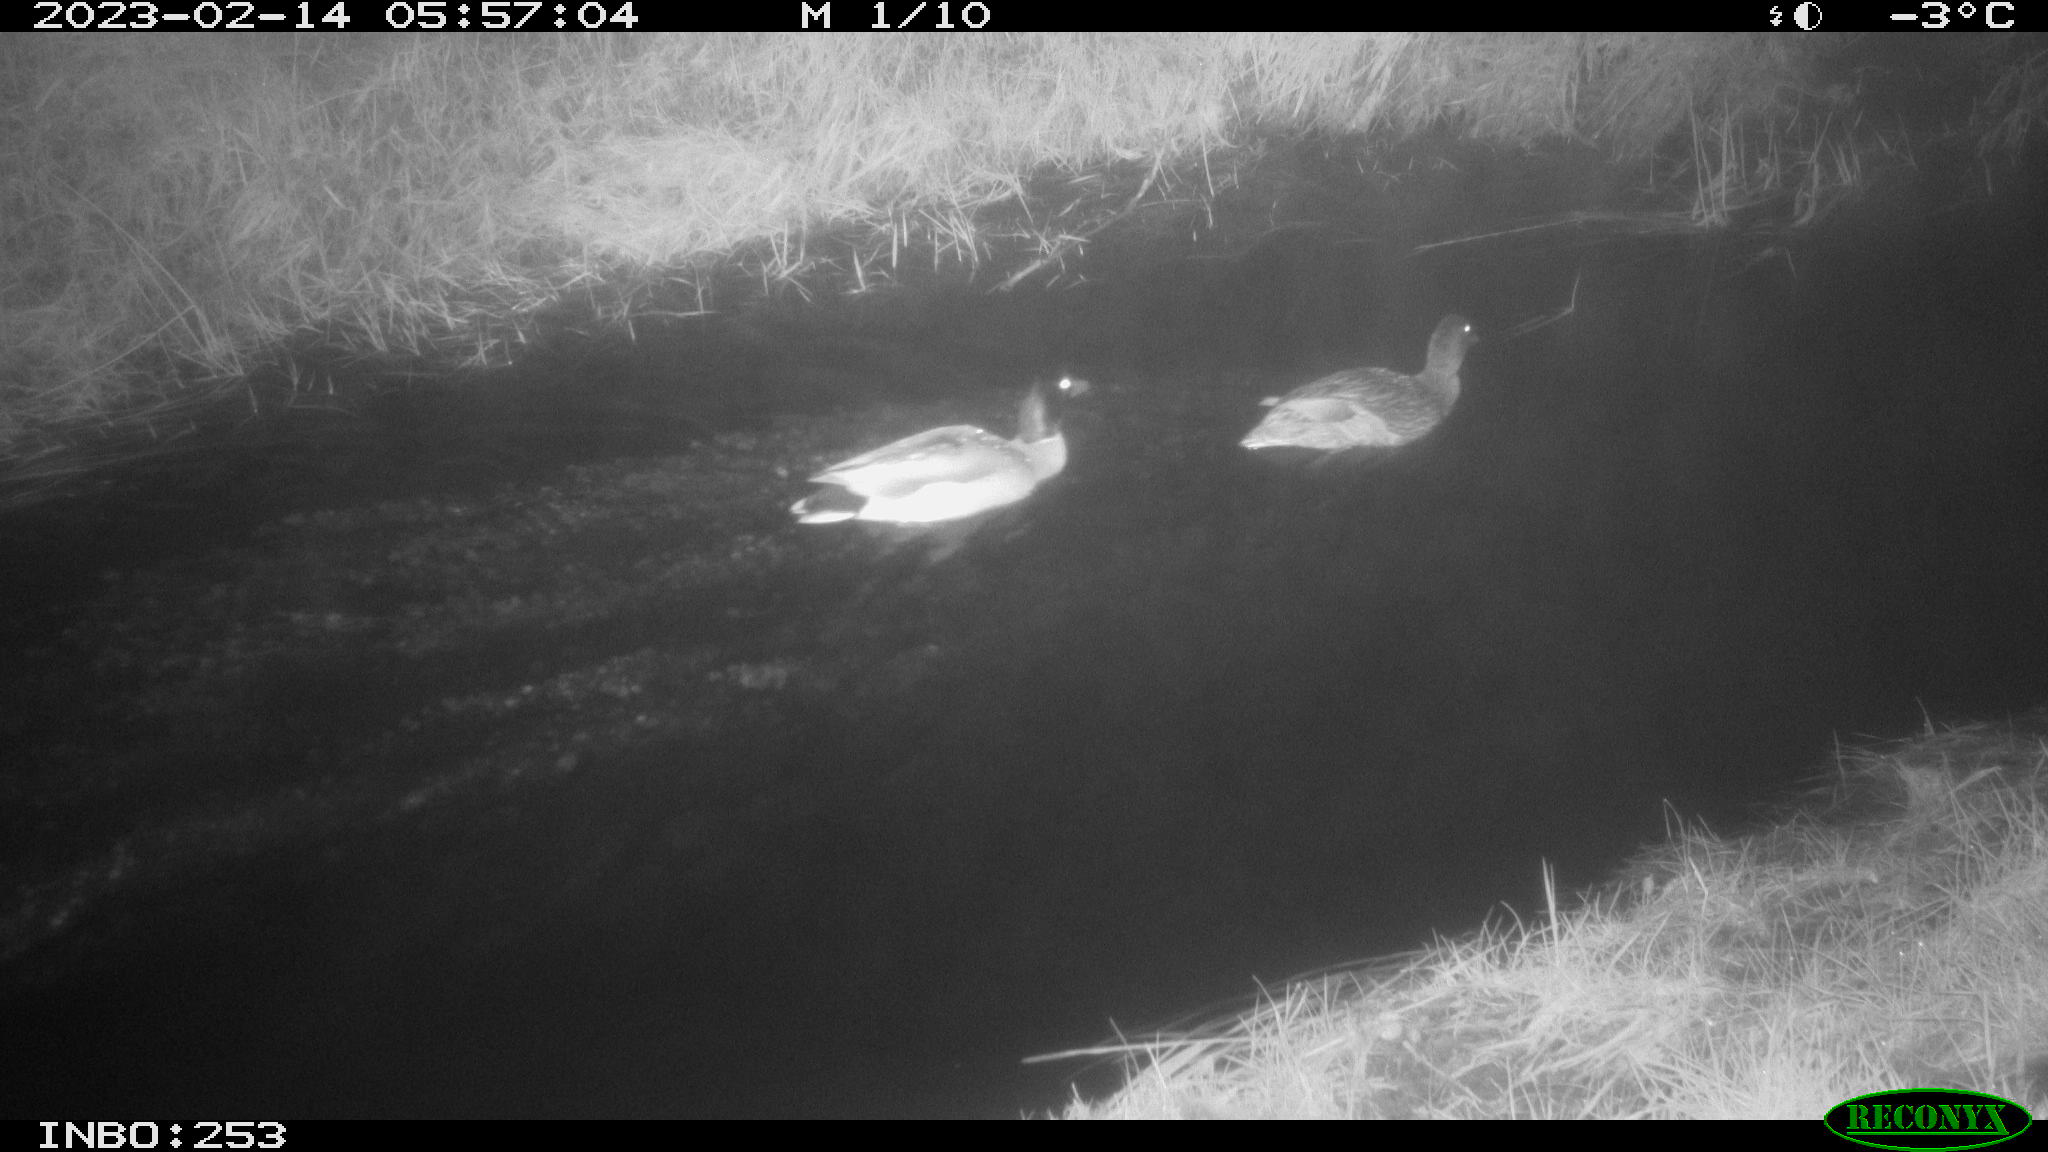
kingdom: Animalia
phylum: Chordata
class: Aves
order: Anseriformes
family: Anatidae
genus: Anas
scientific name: Anas
